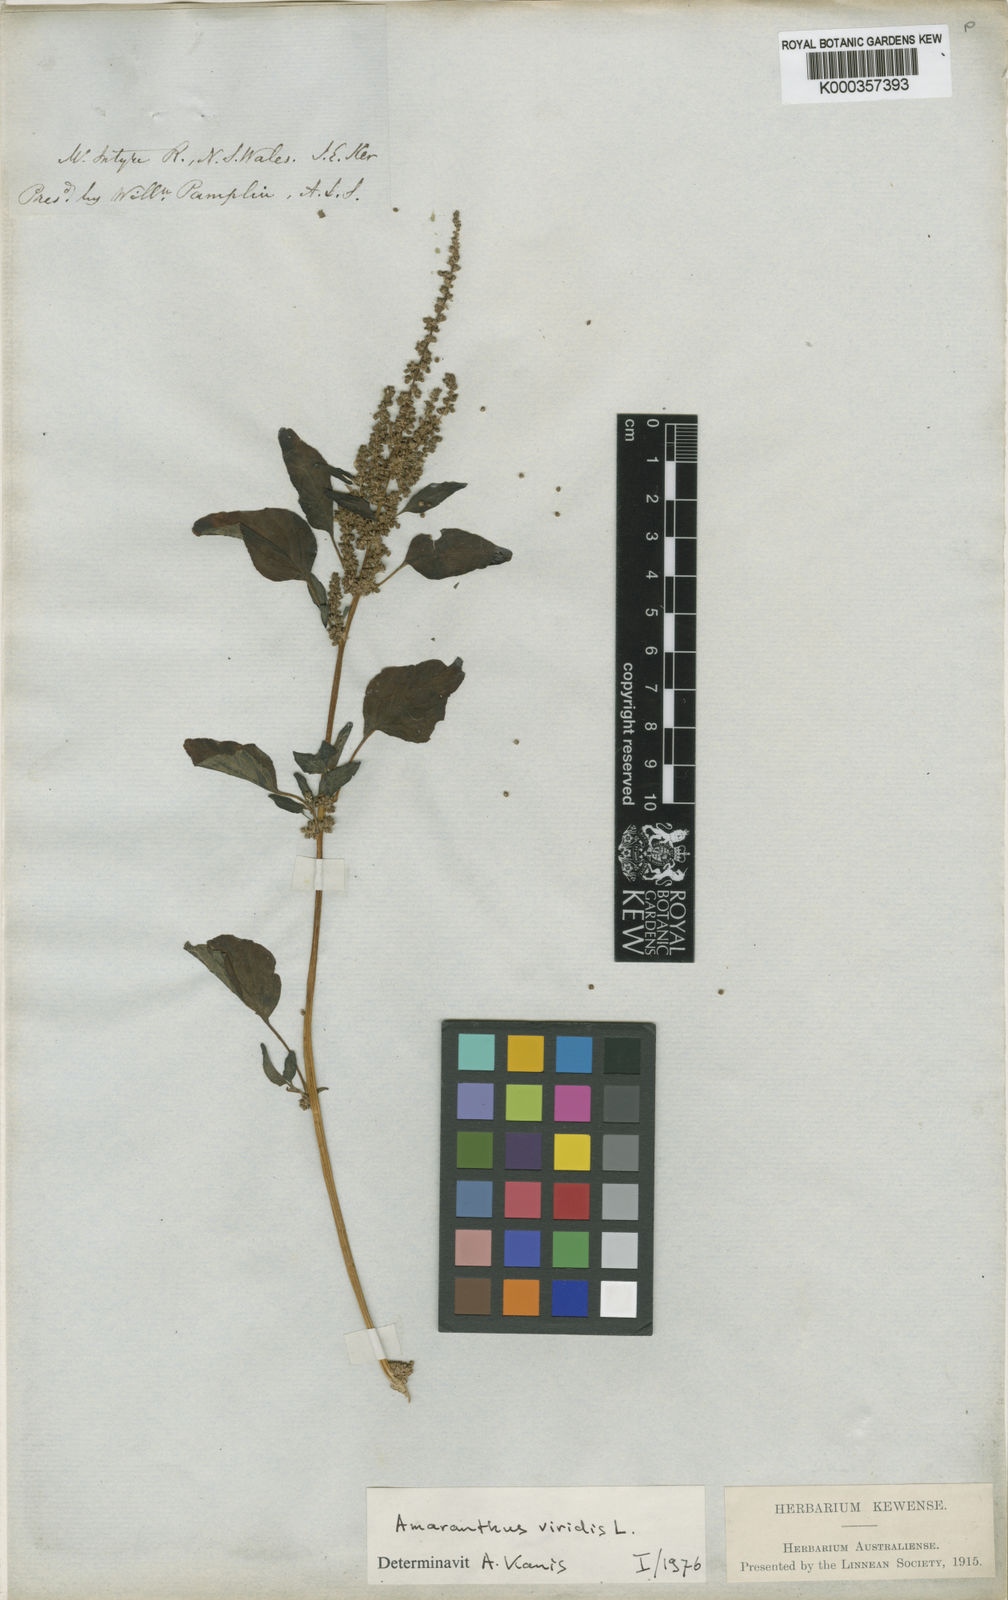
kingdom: Plantae
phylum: Tracheophyta
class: Magnoliopsida
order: Caryophyllales
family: Amaranthaceae
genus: Amaranthus
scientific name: Amaranthus viridis
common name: Slender amaranth
